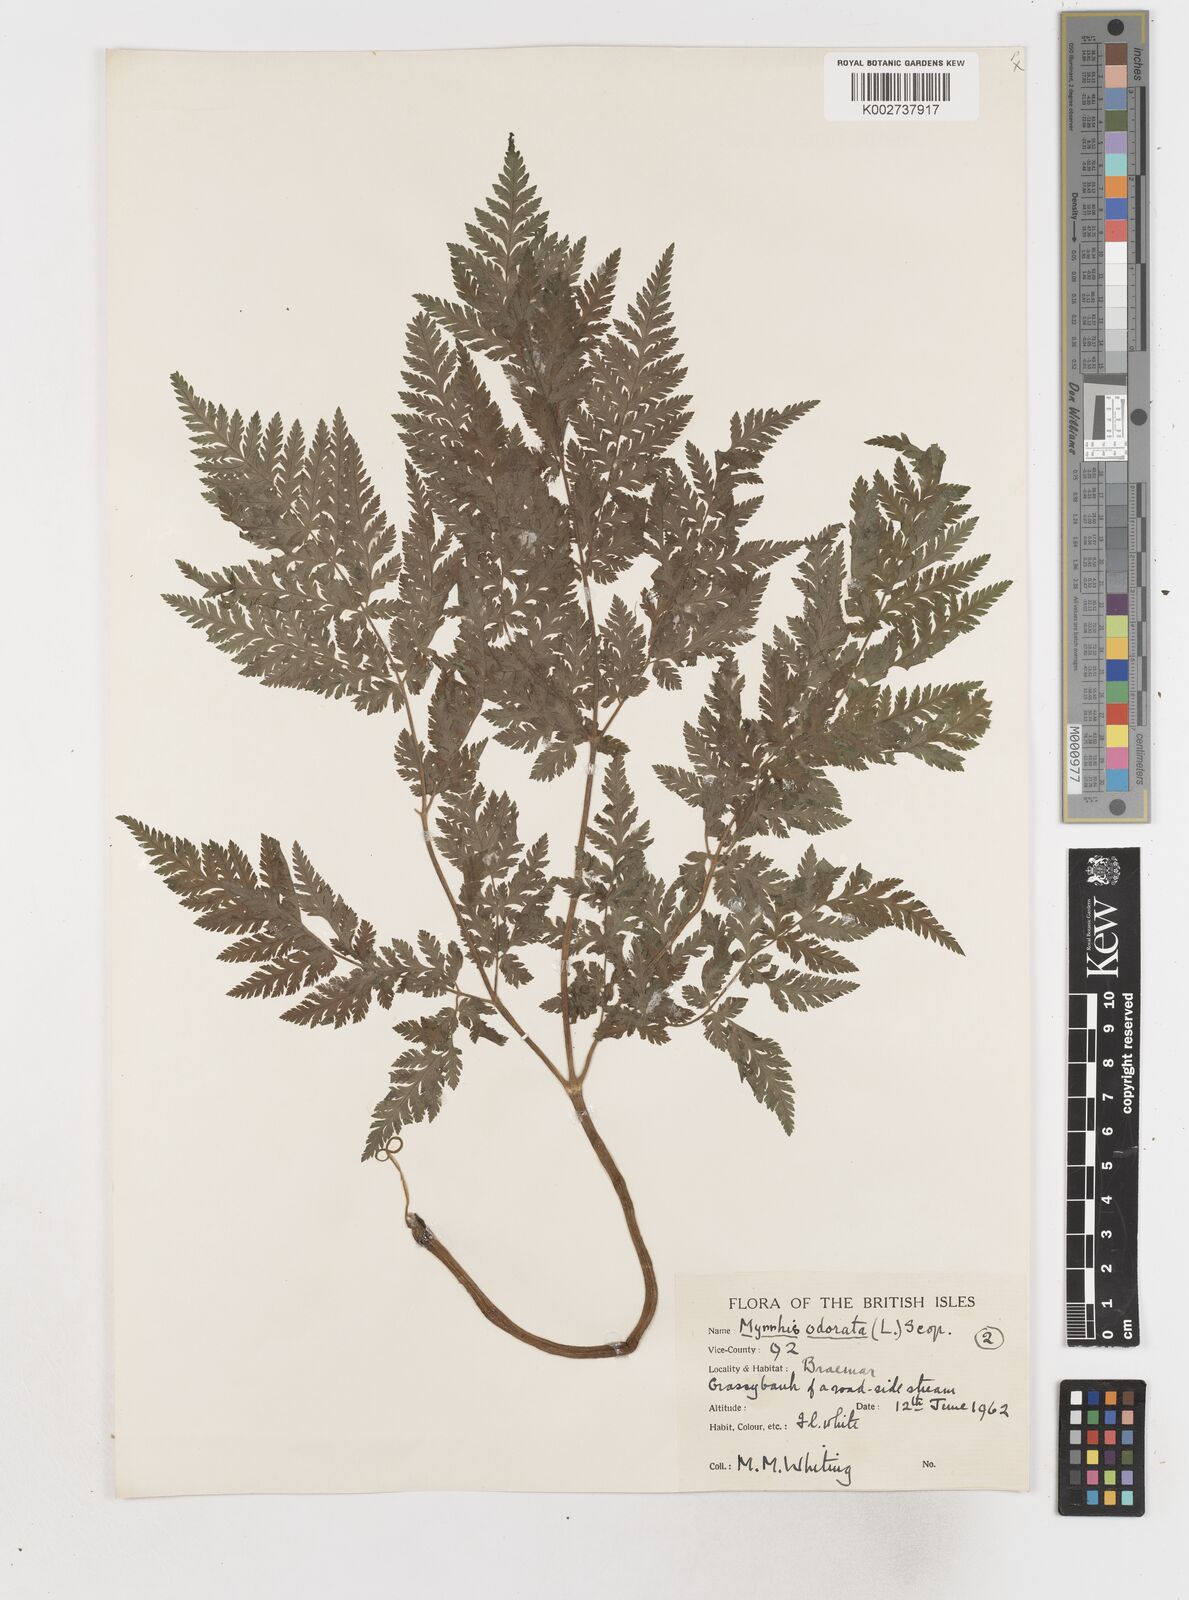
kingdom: Plantae
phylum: Tracheophyta
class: Magnoliopsida
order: Apiales
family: Apiaceae
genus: Myrrhis
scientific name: Myrrhis odorata
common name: Sweet cicely
